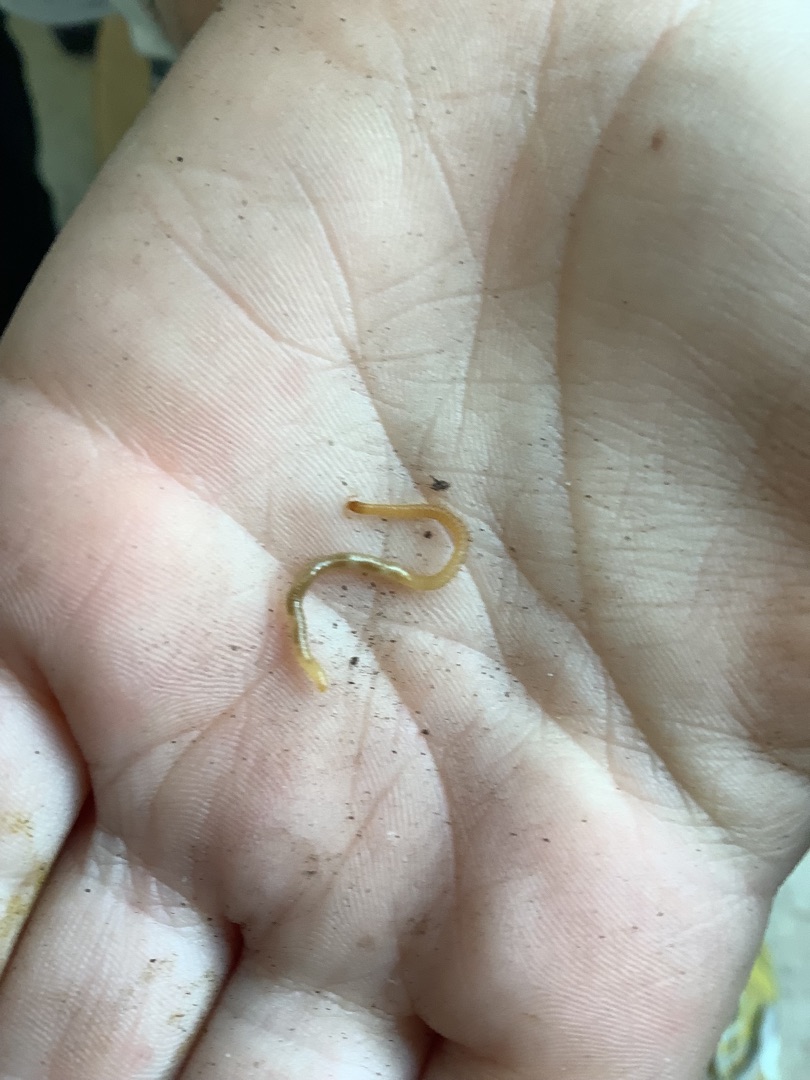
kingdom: Animalia
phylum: Arthropoda
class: Chilopoda
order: Geophilomorpha
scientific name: Geophilomorpha
